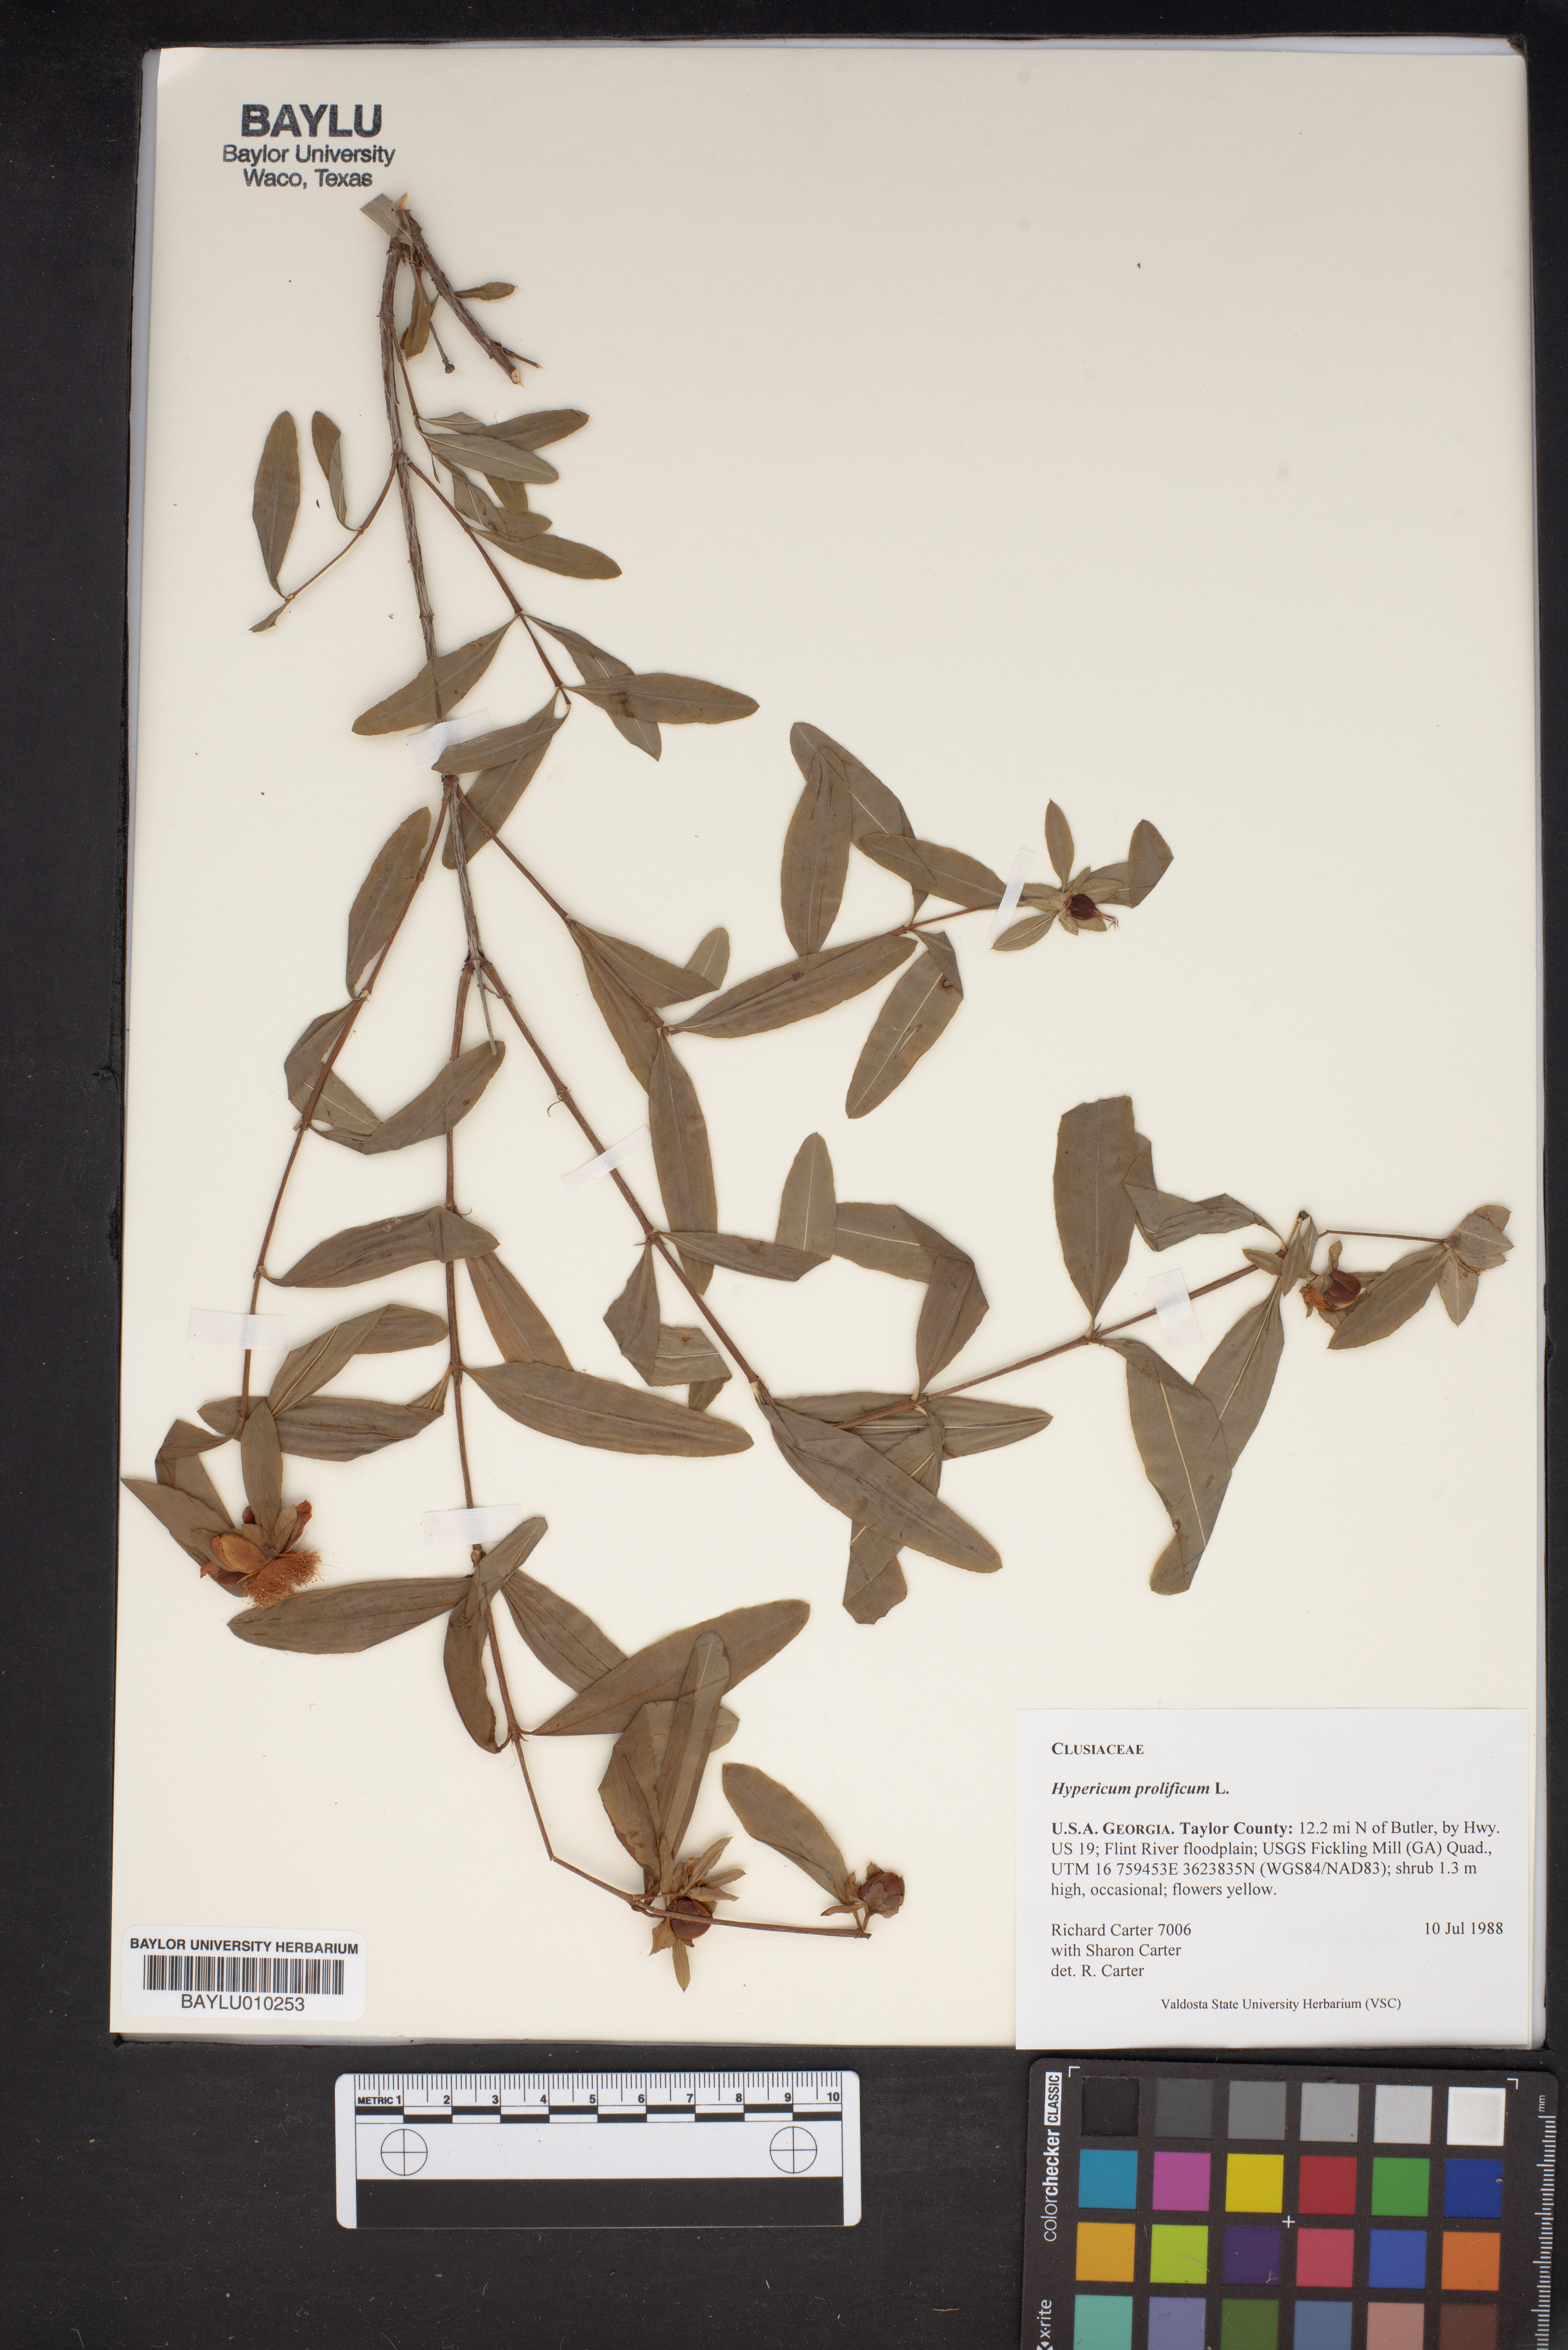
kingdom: Plantae
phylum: Tracheophyta
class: Magnoliopsida
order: Malpighiales
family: Hypericaceae
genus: Hypericum
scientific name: Hypericum prolificum
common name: Shrubby st. john's-wort
